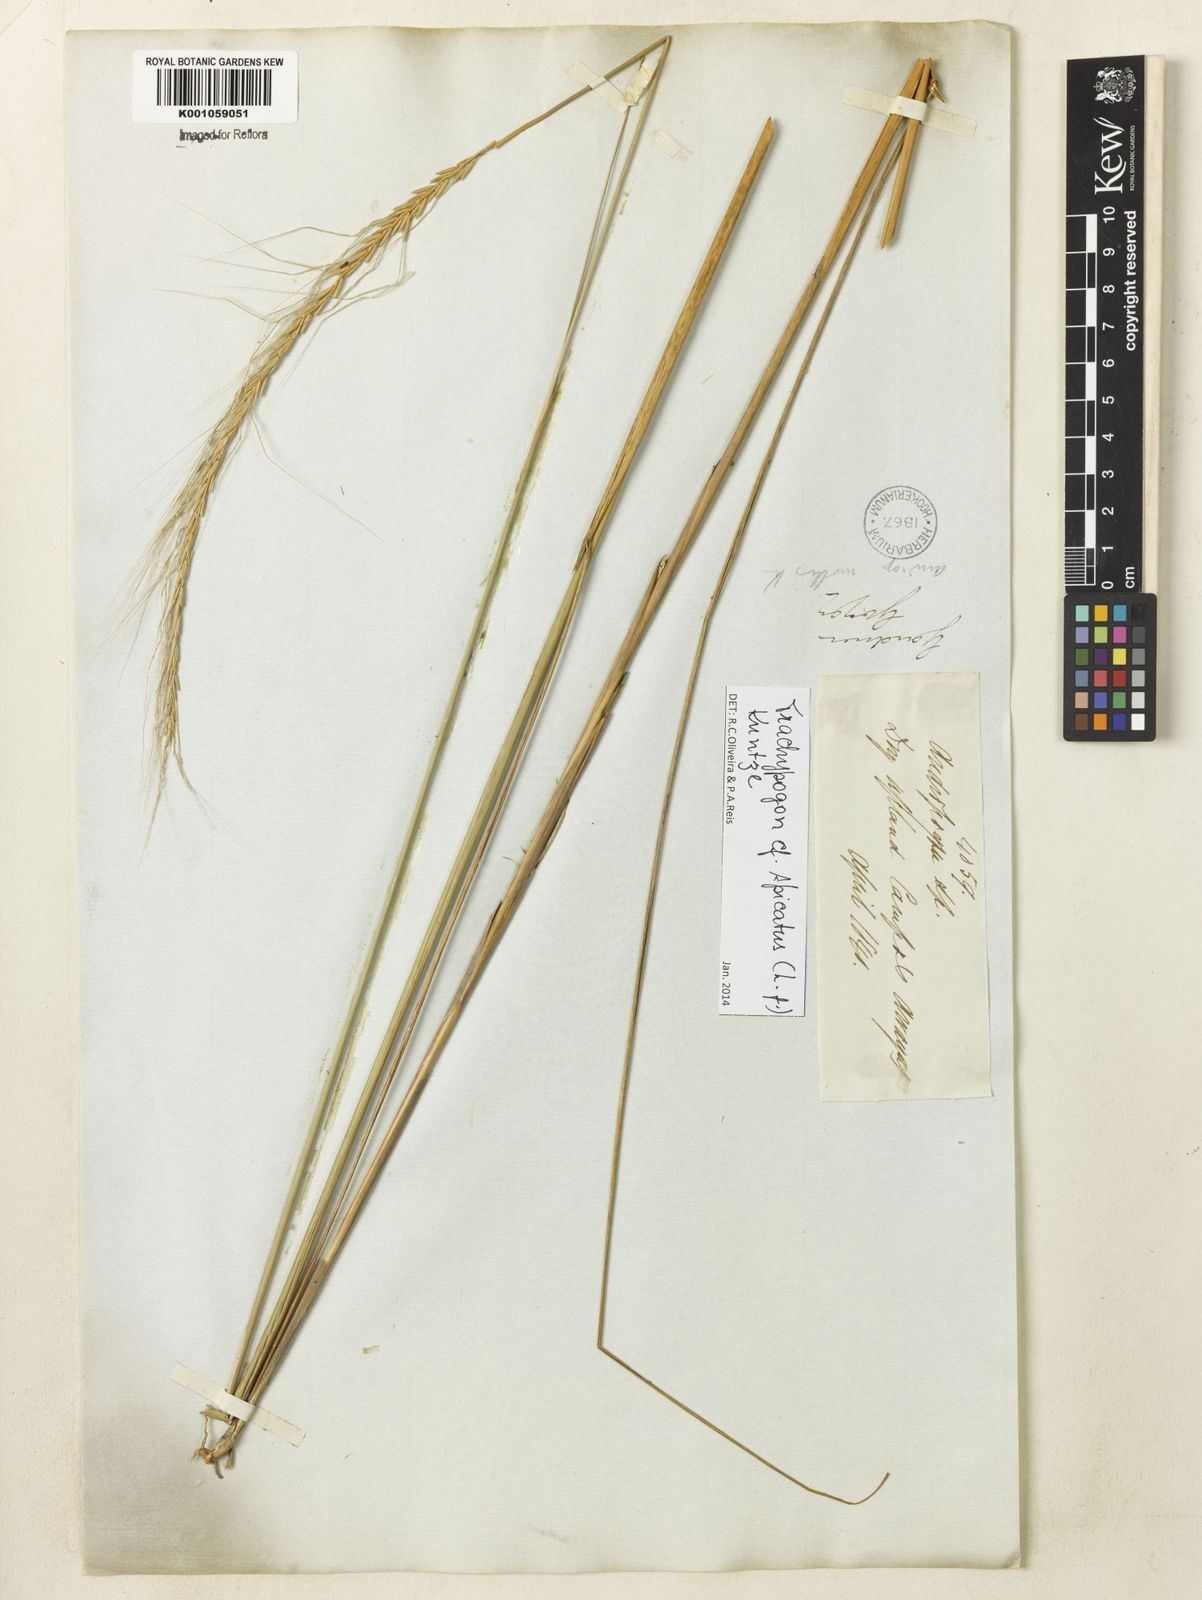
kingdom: Plantae
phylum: Tracheophyta
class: Liliopsida
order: Poales
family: Poaceae
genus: Trachypogon
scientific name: Trachypogon spicatus
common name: Crinkle-awn
